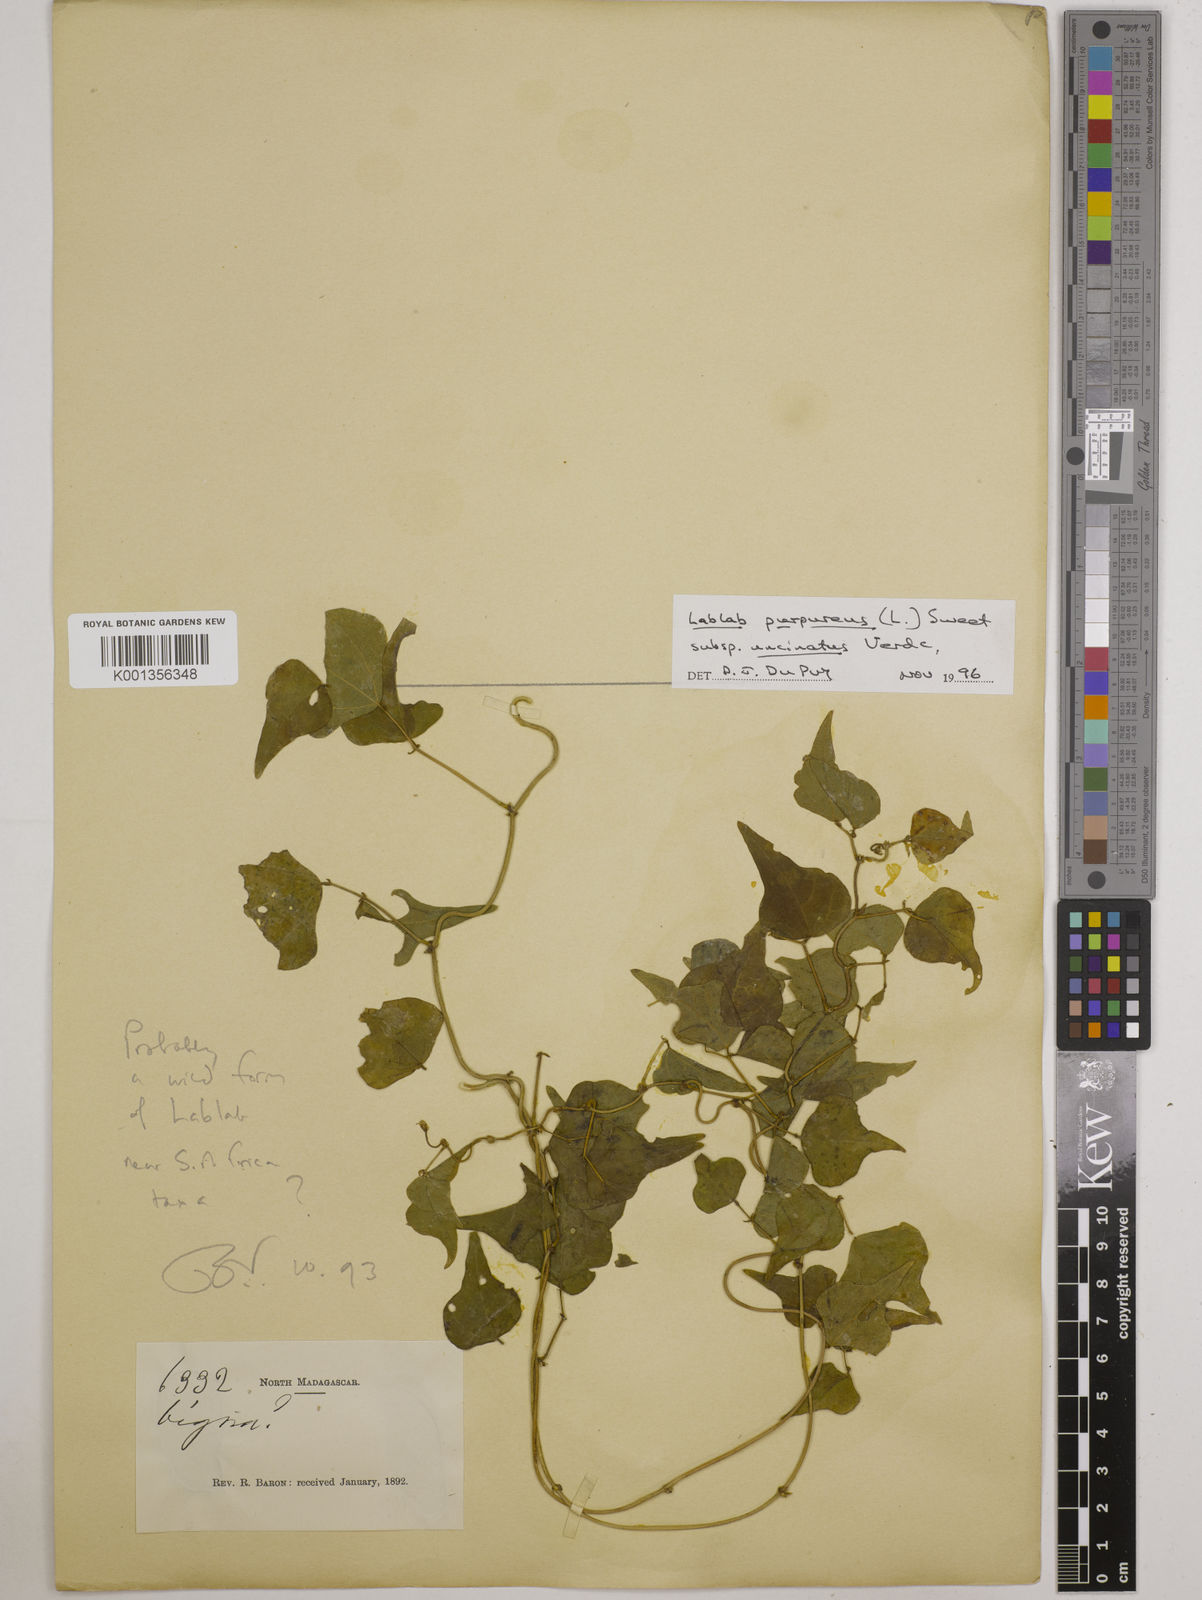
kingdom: Plantae
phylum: Tracheophyta
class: Magnoliopsida
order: Fabales
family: Fabaceae
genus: Lablab
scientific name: Lablab purpureus
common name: Lablab-bean
